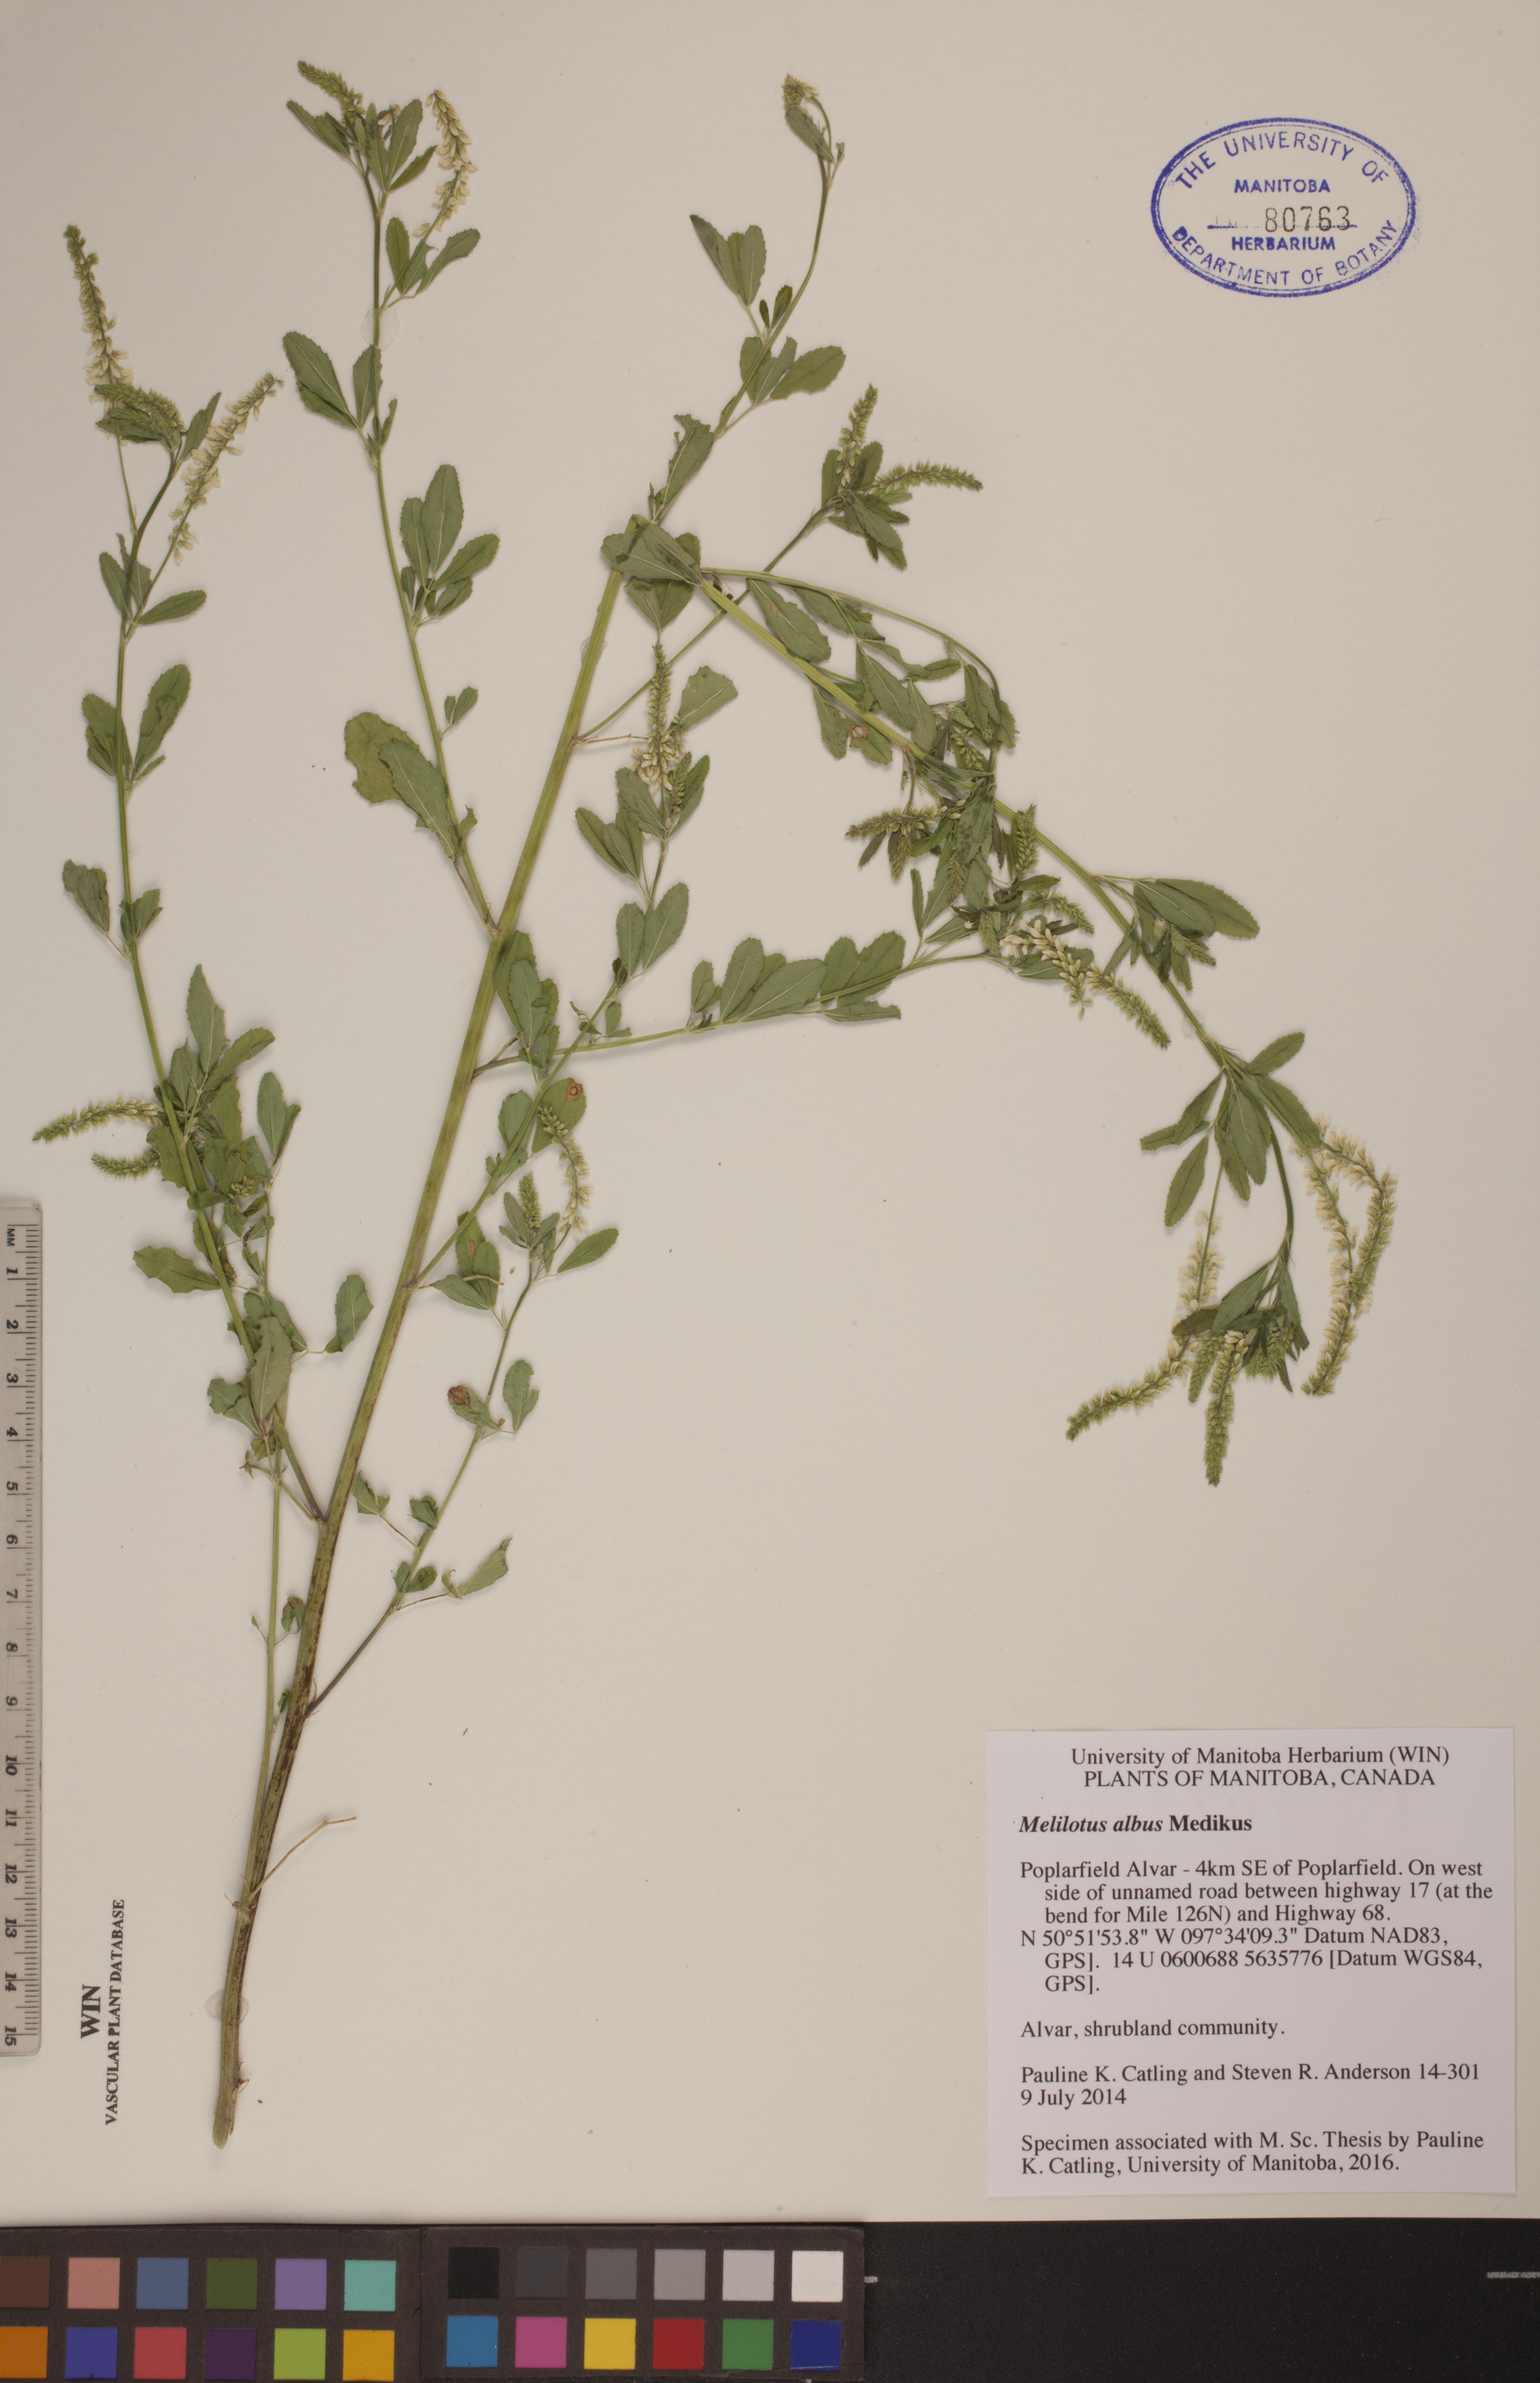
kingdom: Plantae
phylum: Tracheophyta
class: Magnoliopsida
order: Fabales
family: Fabaceae
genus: Melilotus
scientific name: Melilotus albus
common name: White melilot
